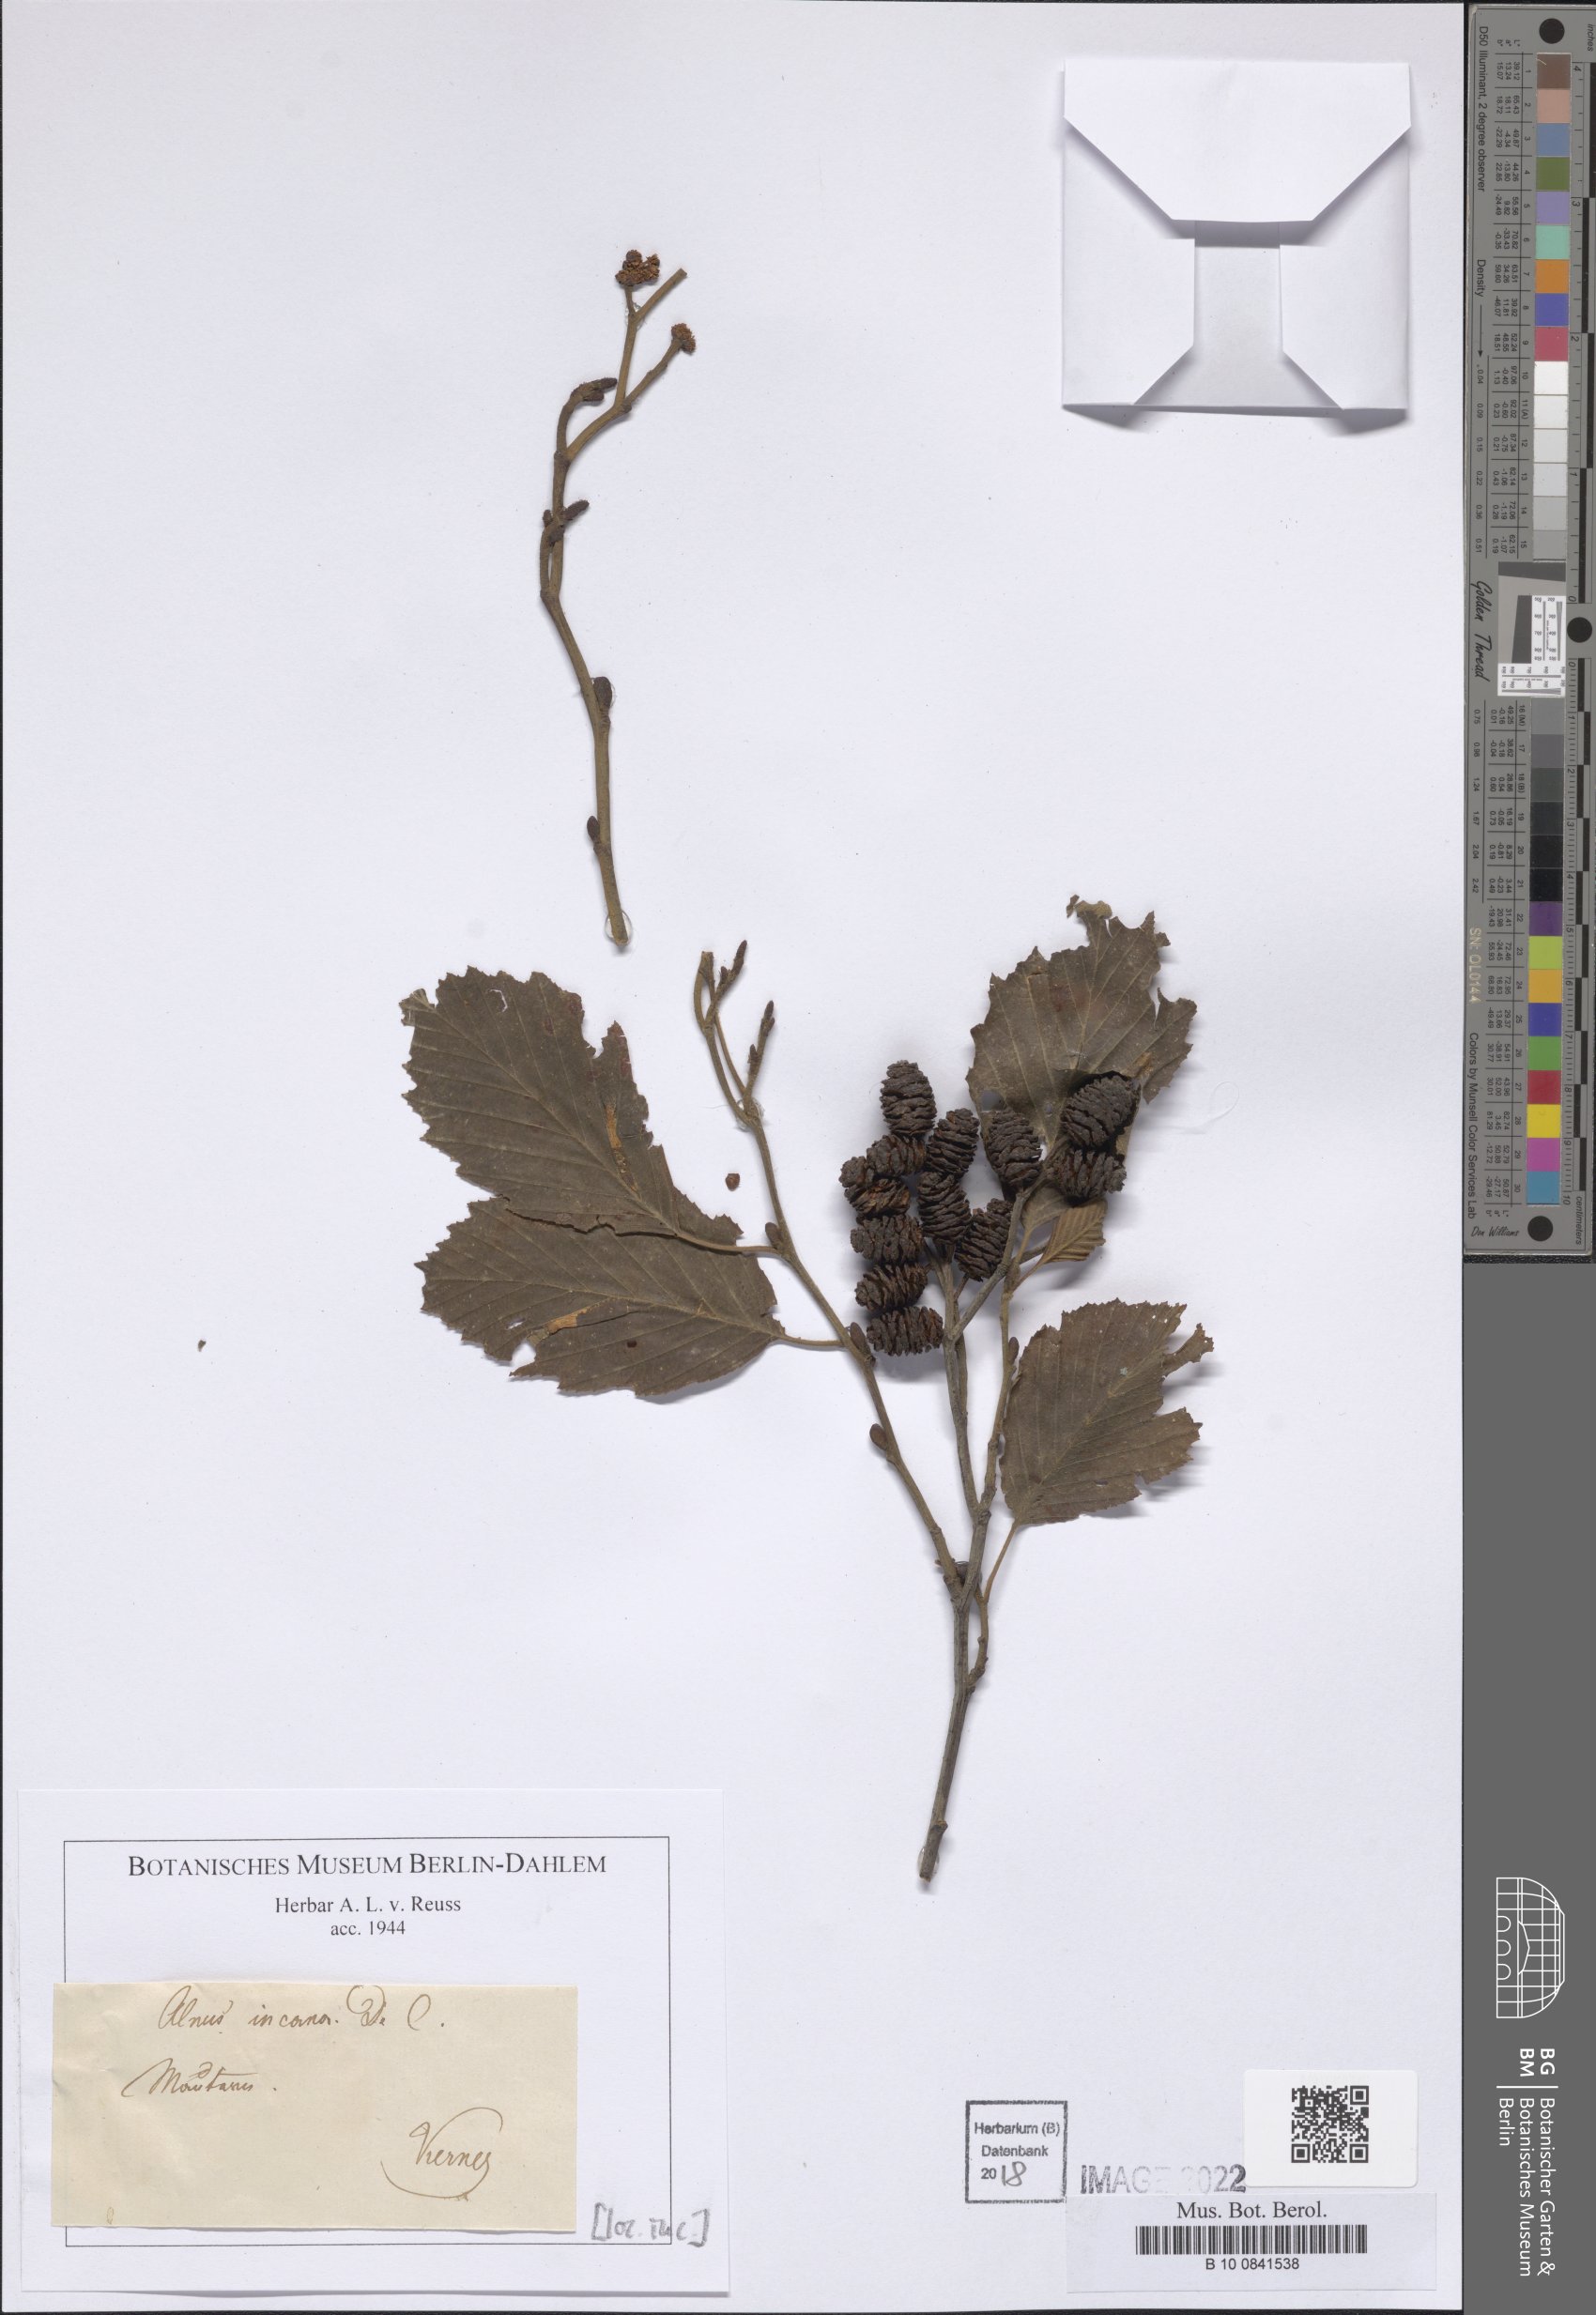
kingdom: Plantae
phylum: Tracheophyta
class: Magnoliopsida
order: Fagales
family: Betulaceae
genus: Alnus
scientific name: Alnus incana
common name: Grey alder
